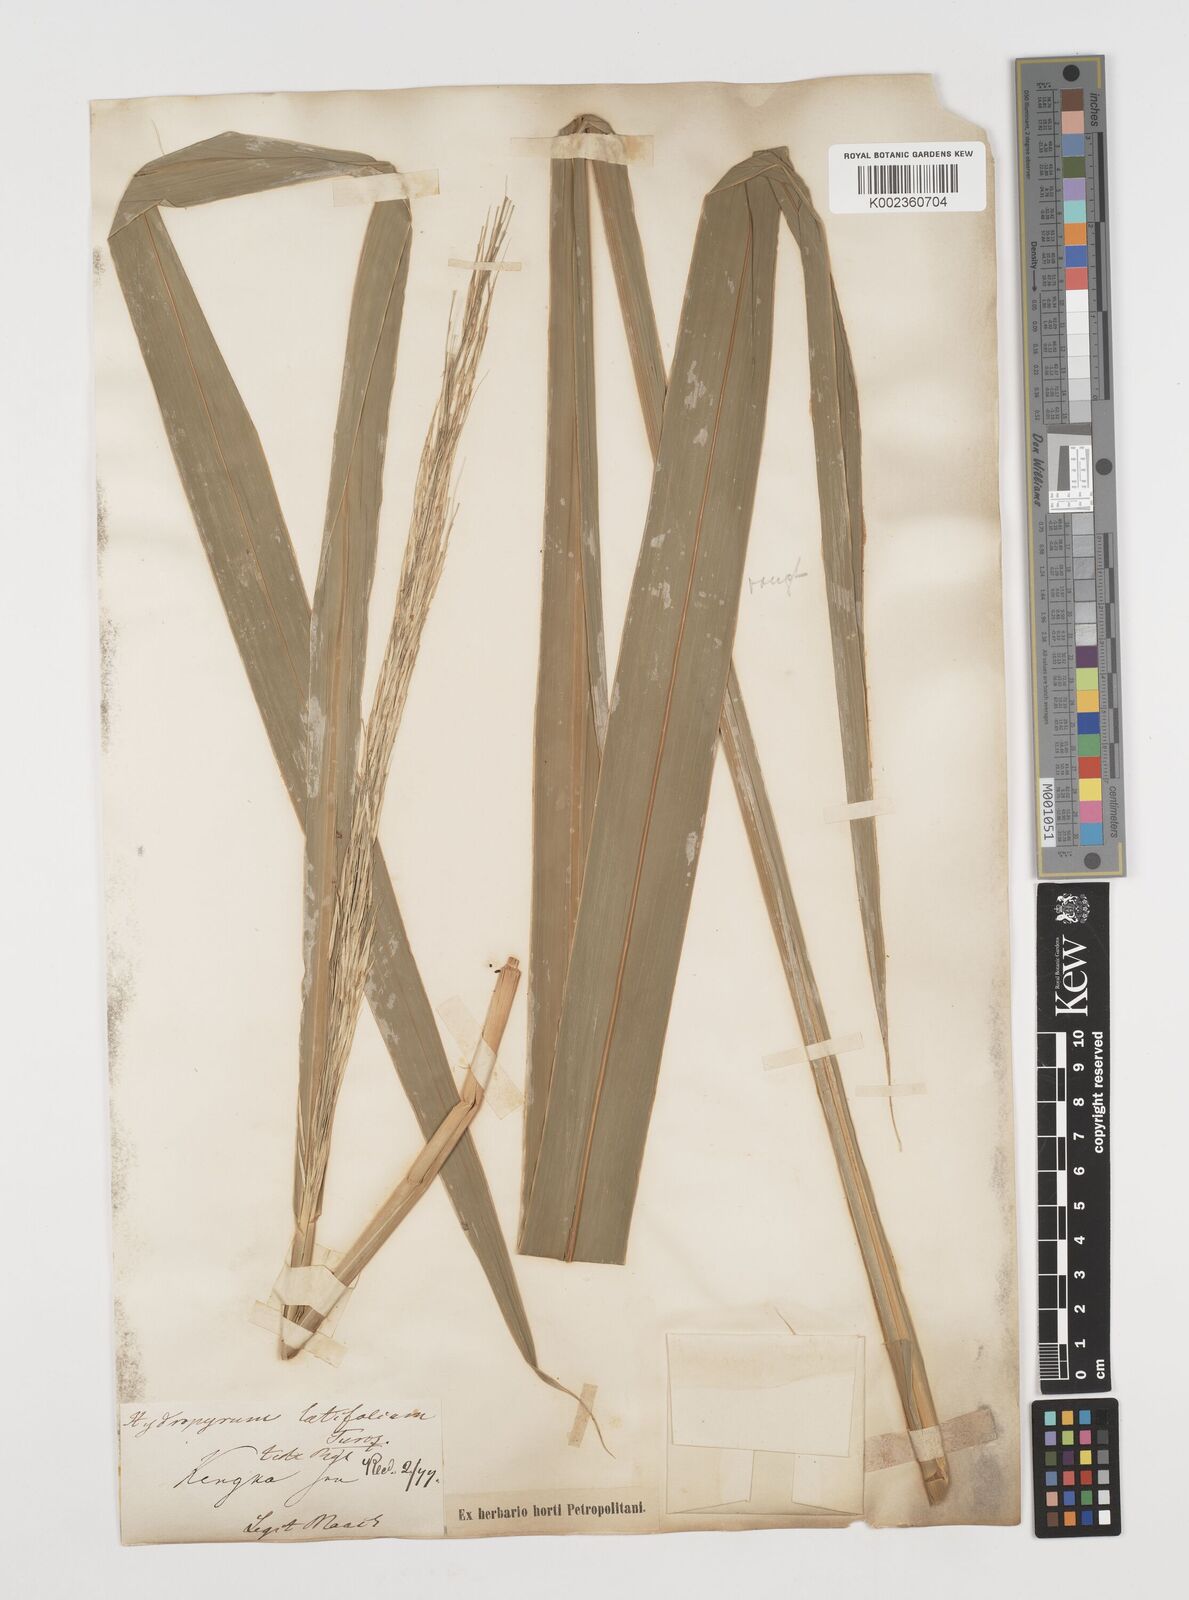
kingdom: Plantae
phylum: Tracheophyta
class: Liliopsida
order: Poales
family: Poaceae
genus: Zizania
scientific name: Zizania latifolia
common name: Manchurian wildrice
